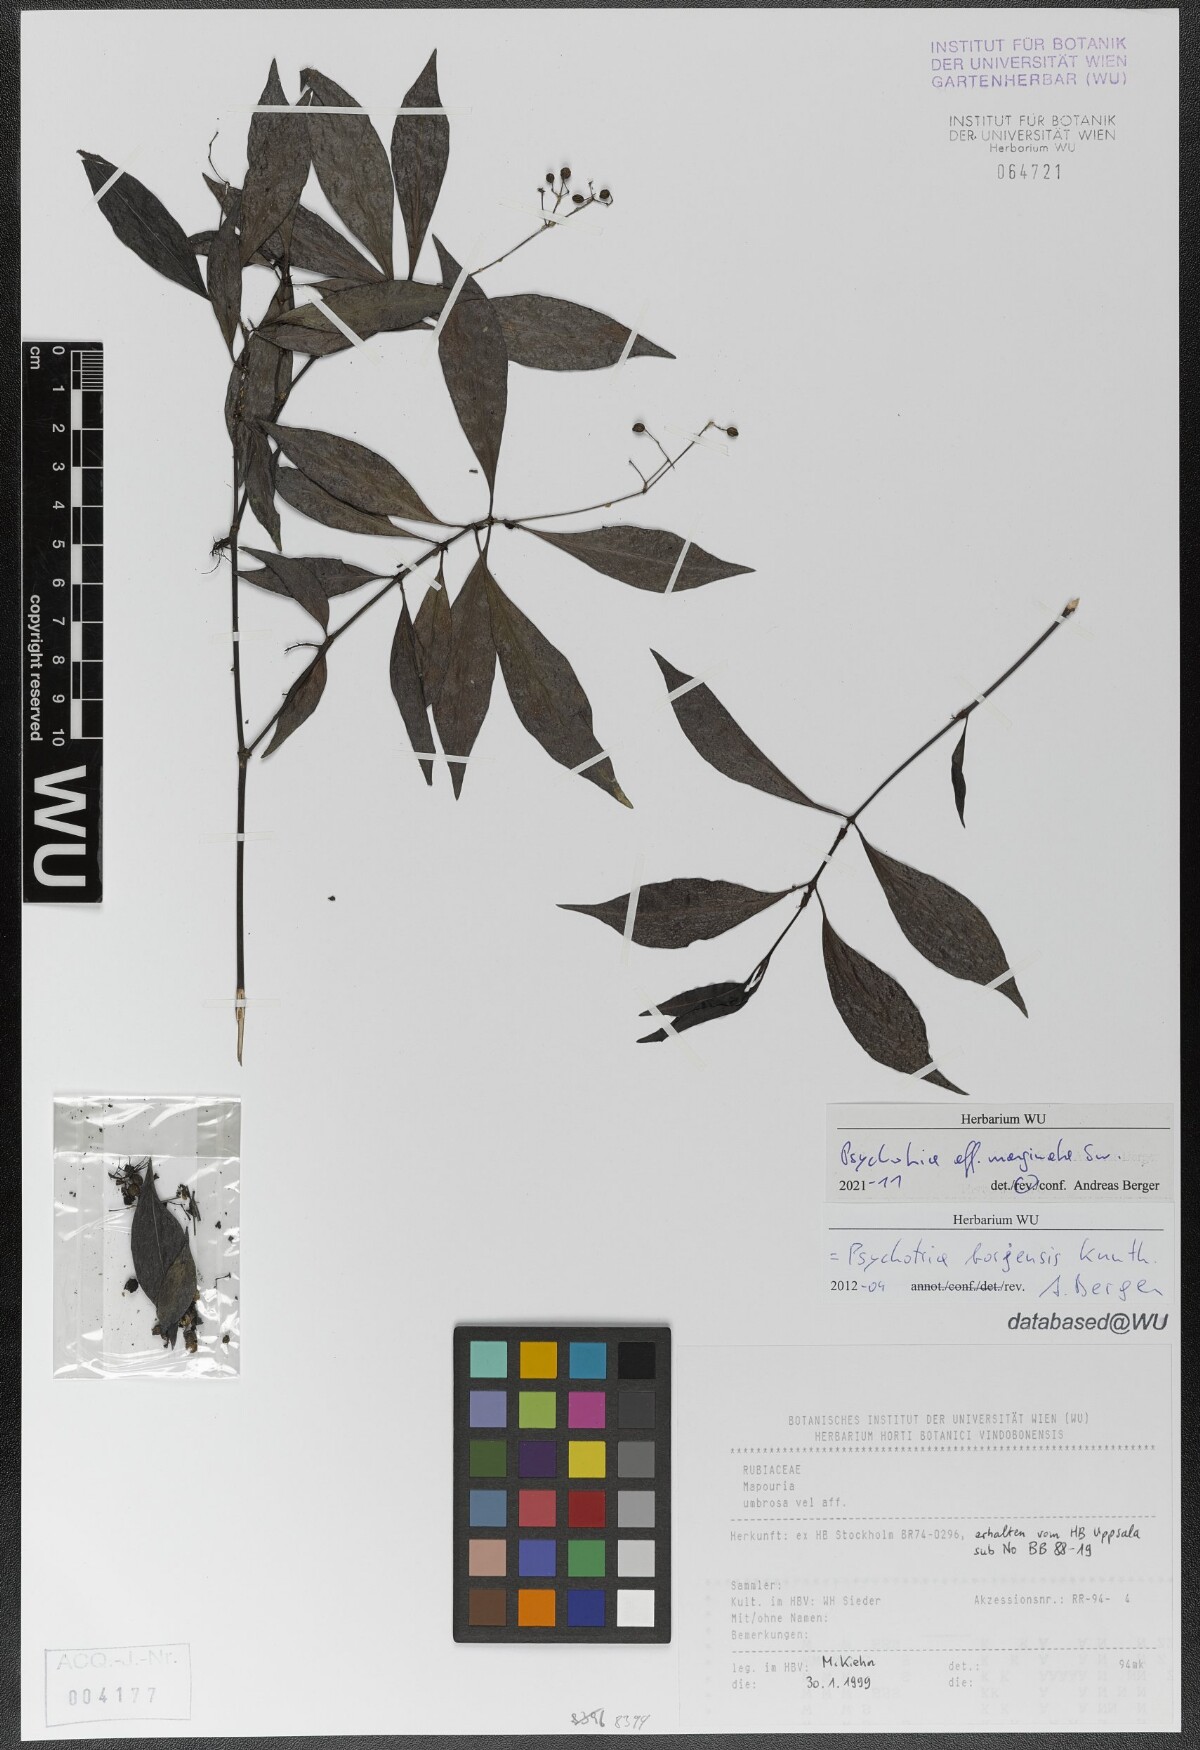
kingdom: Plantae
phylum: Tracheophyta
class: Magnoliopsida
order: Gentianales
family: Rubiaceae
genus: Psychotria
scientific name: Psychotria marginata
